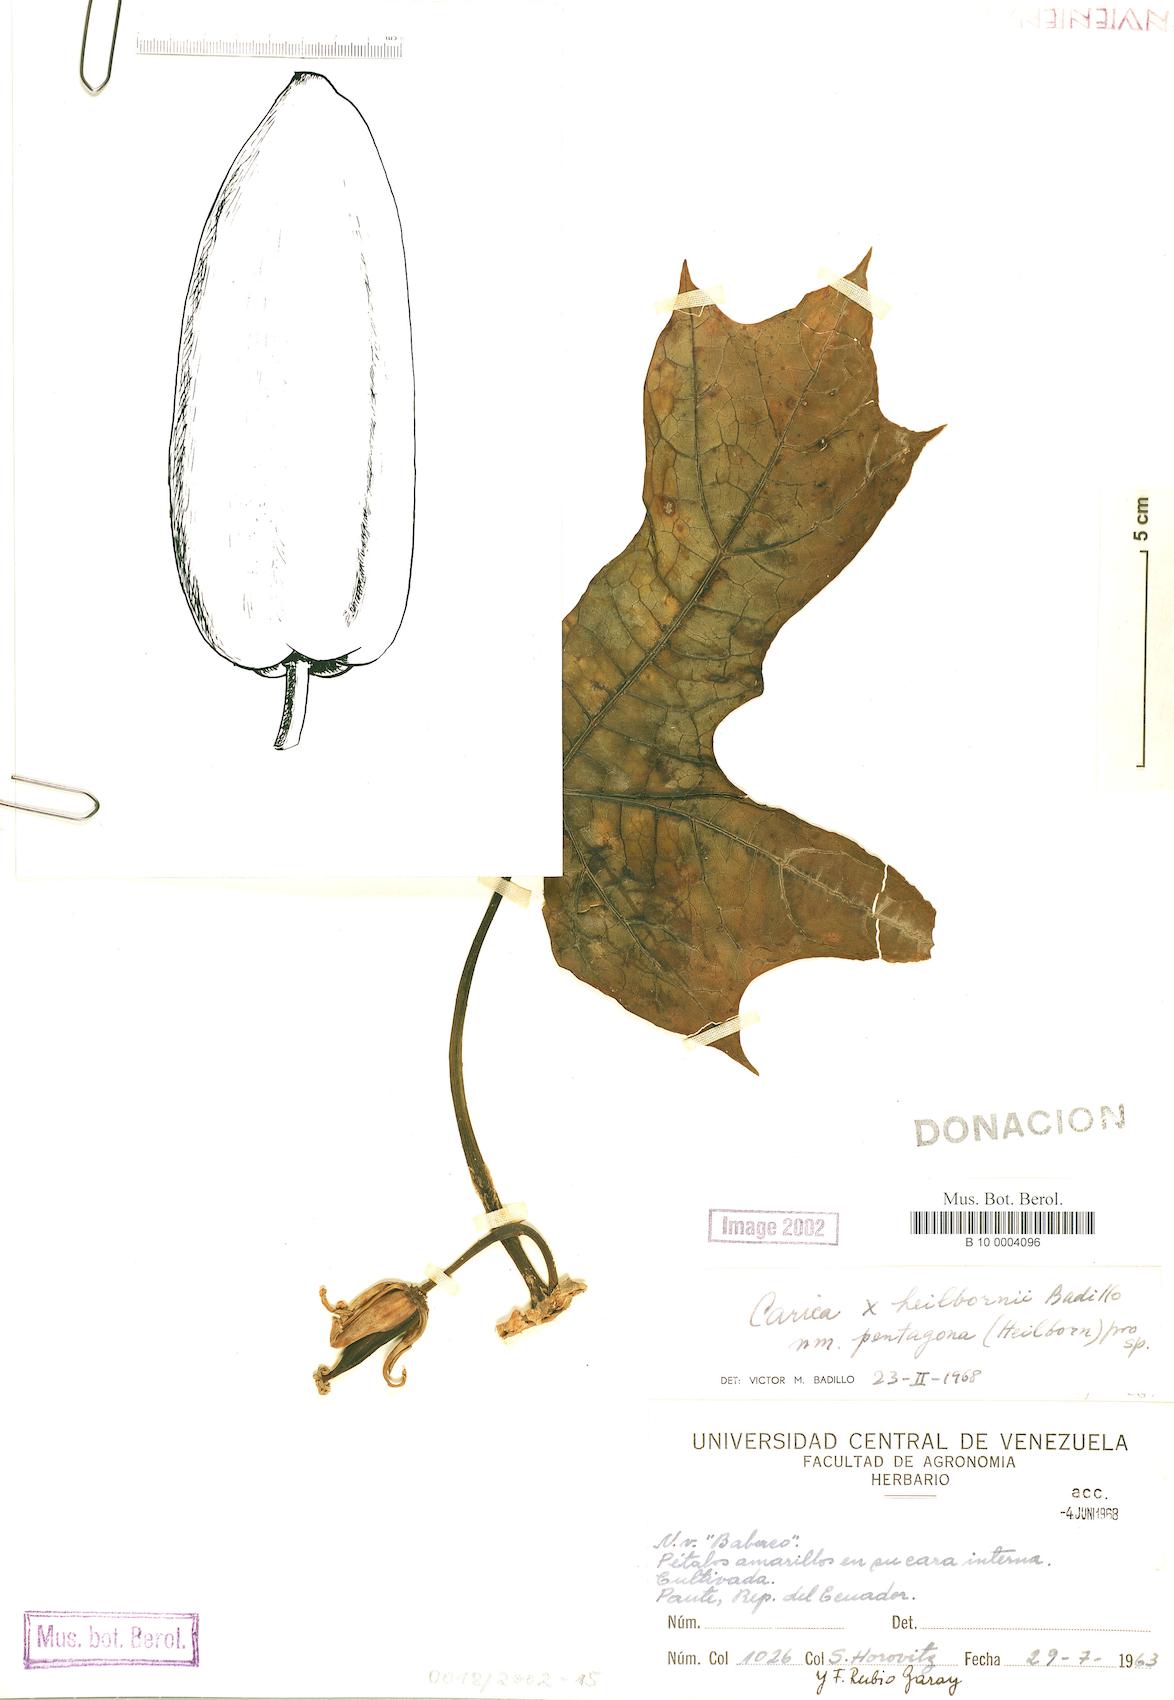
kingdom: Plantae
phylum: Tracheophyta
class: Magnoliopsida
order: Brassicales
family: Caricaceae
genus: Vasconcellea
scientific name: Vasconcellea pentagona
